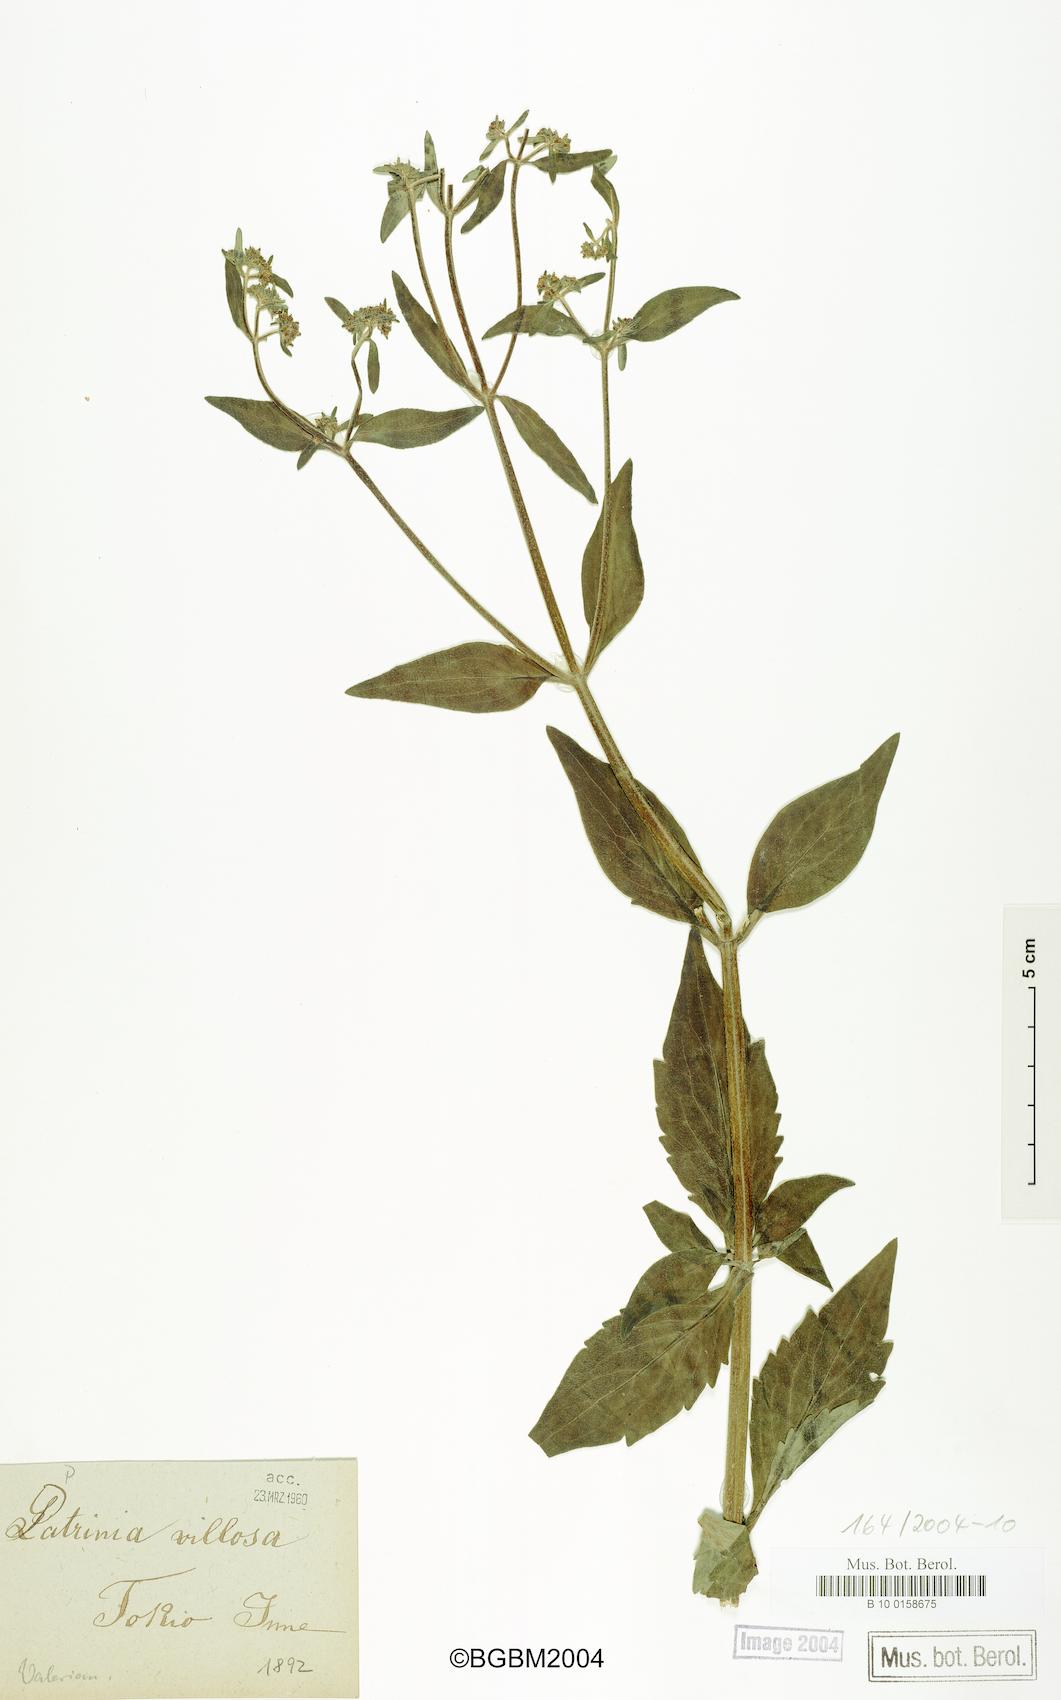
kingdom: Plantae
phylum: Tracheophyta
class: Magnoliopsida
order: Dipsacales
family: Caprifoliaceae
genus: Patrinia
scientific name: Patrinia villosa
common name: Patrinia
